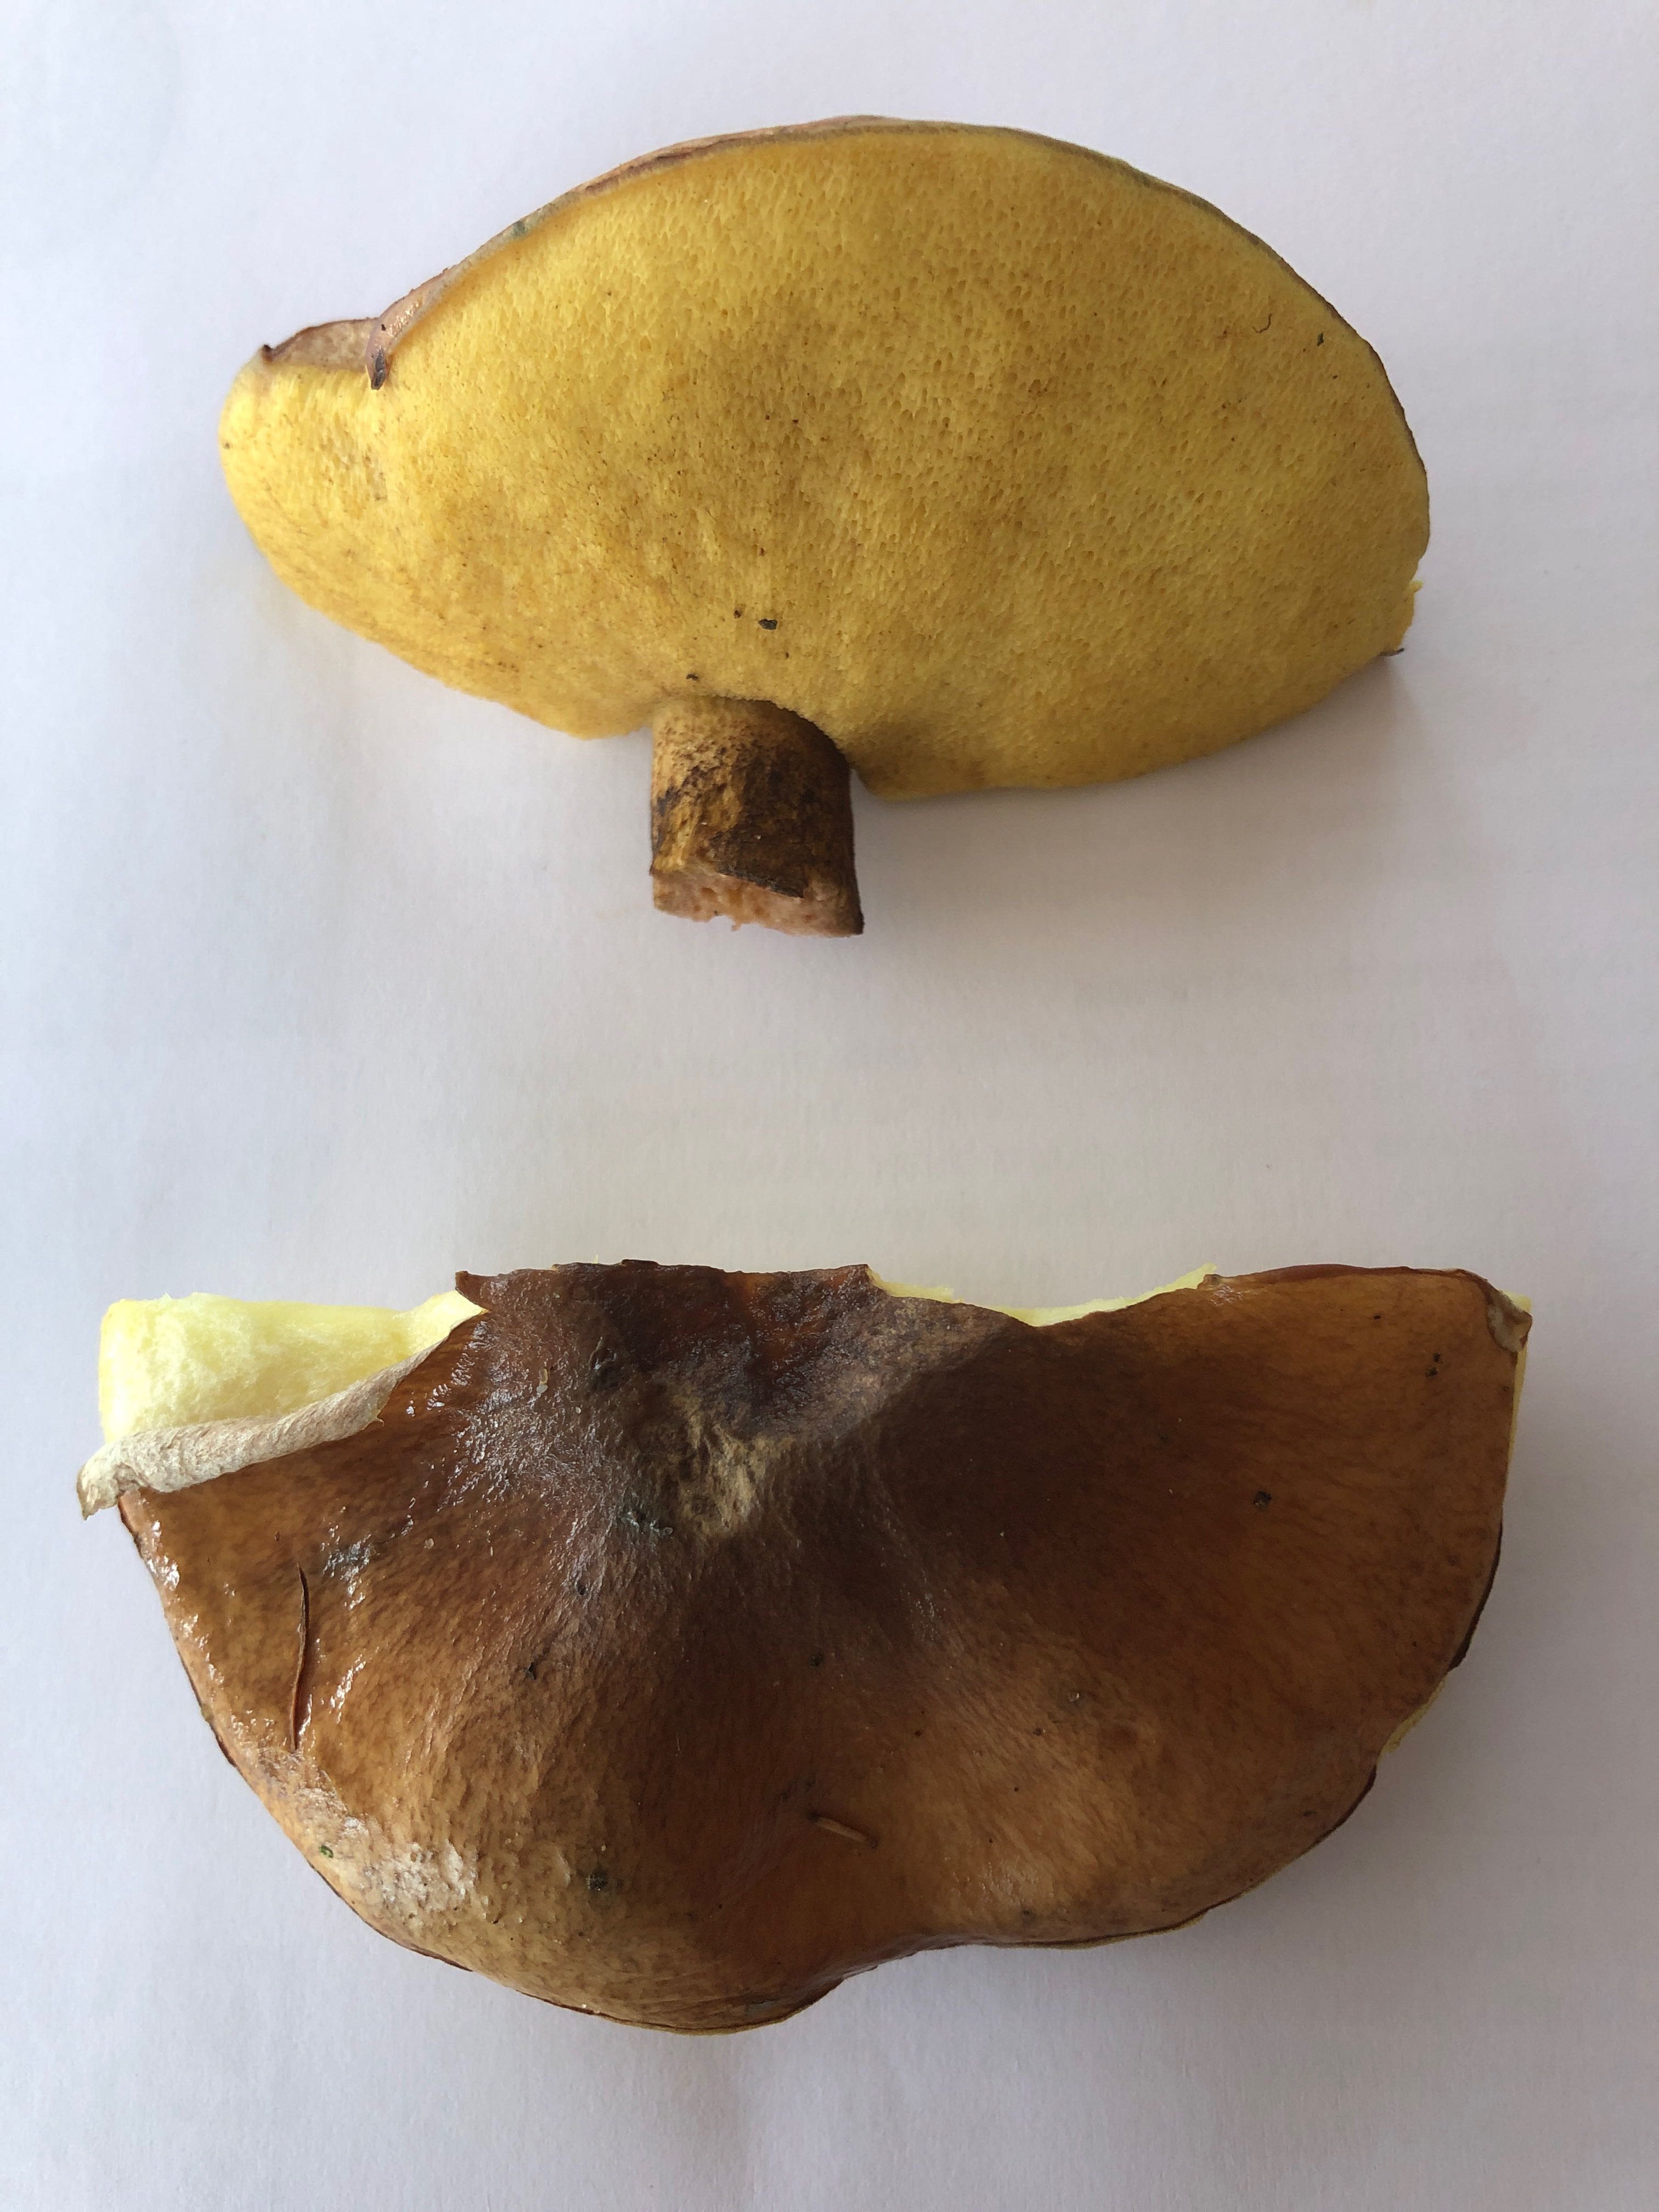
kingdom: Fungi
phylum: Basidiomycota
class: Agaricomycetes
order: Boletales
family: Suillaceae
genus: Suillus
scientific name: Suillus
